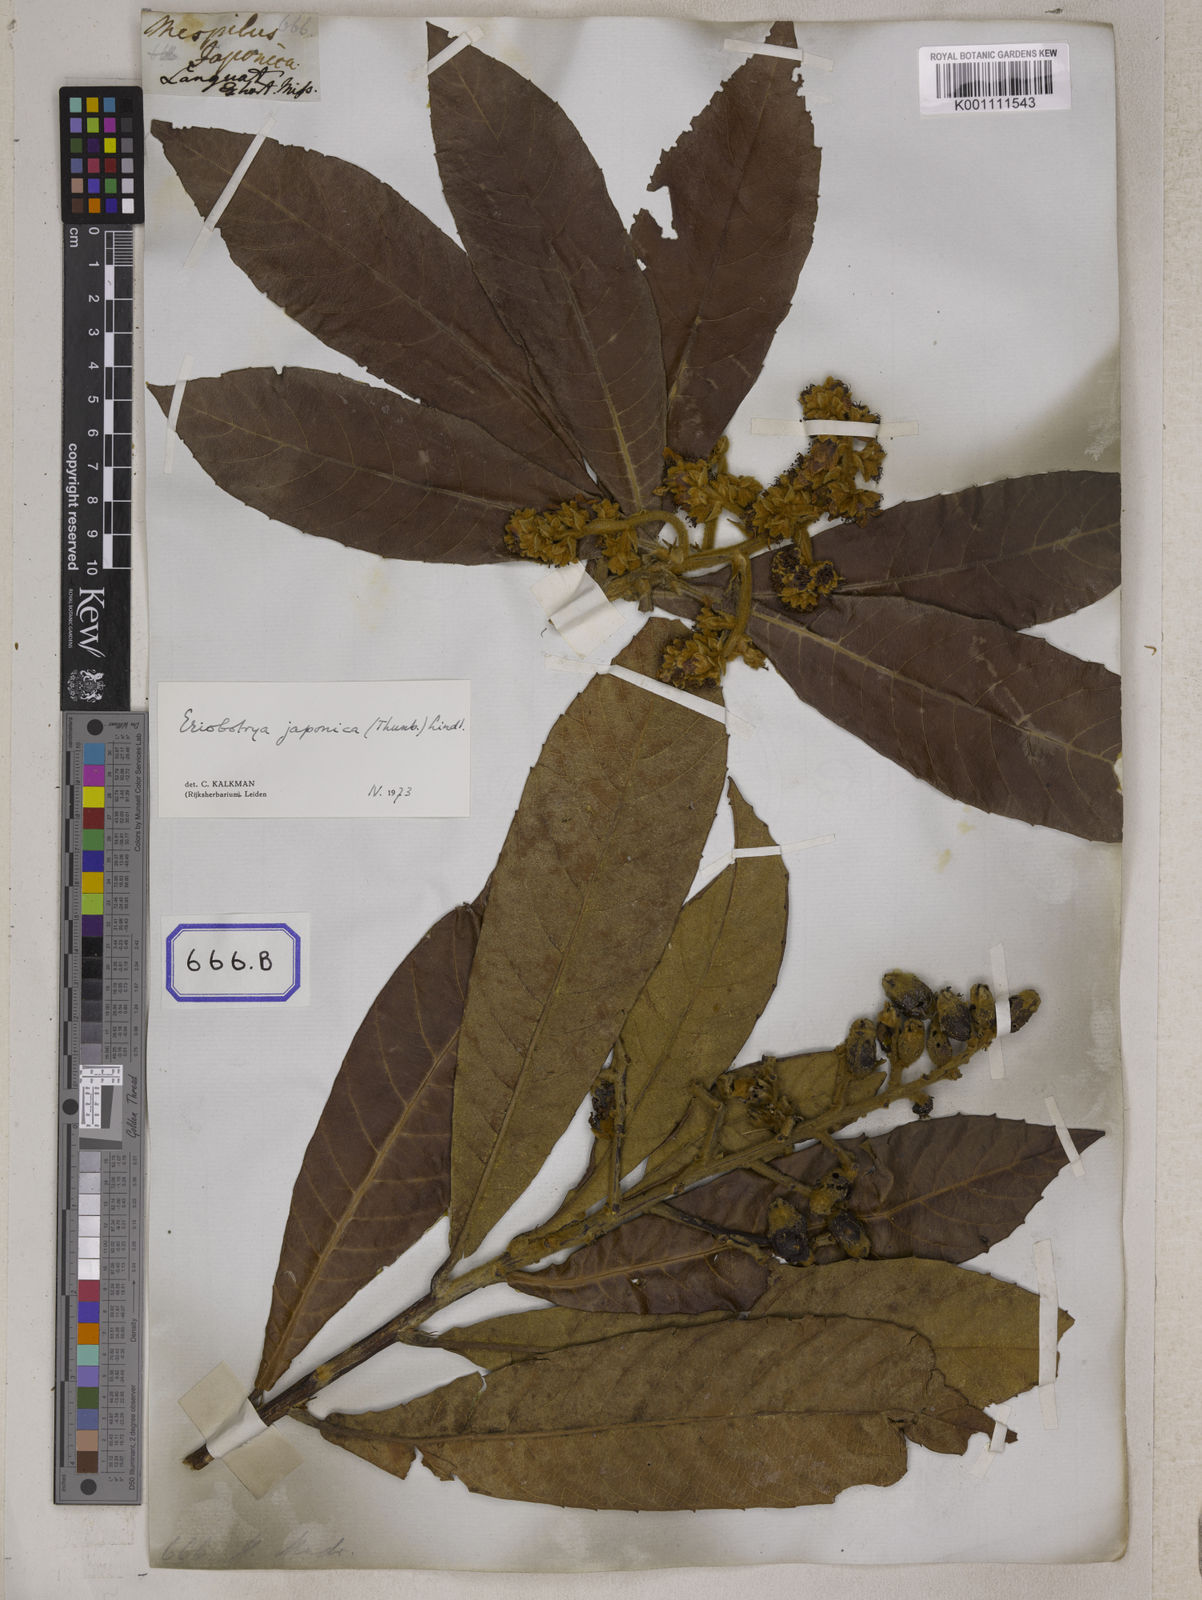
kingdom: Plantae
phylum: Tracheophyta
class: Magnoliopsida
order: Rosales
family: Rosaceae
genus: Rhaphiolepis
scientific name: Rhaphiolepis bibas
